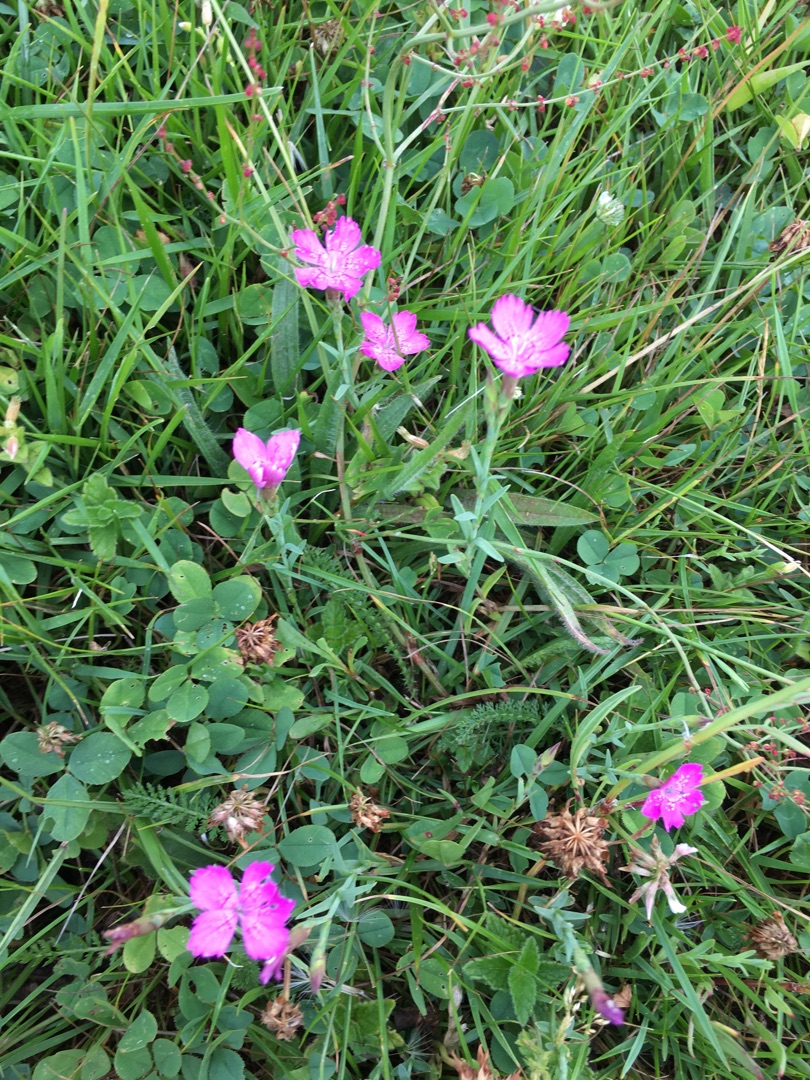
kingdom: Plantae
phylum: Tracheophyta
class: Magnoliopsida
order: Caryophyllales
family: Caryophyllaceae
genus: Dianthus
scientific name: Dianthus deltoides
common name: Bakke-nellike
